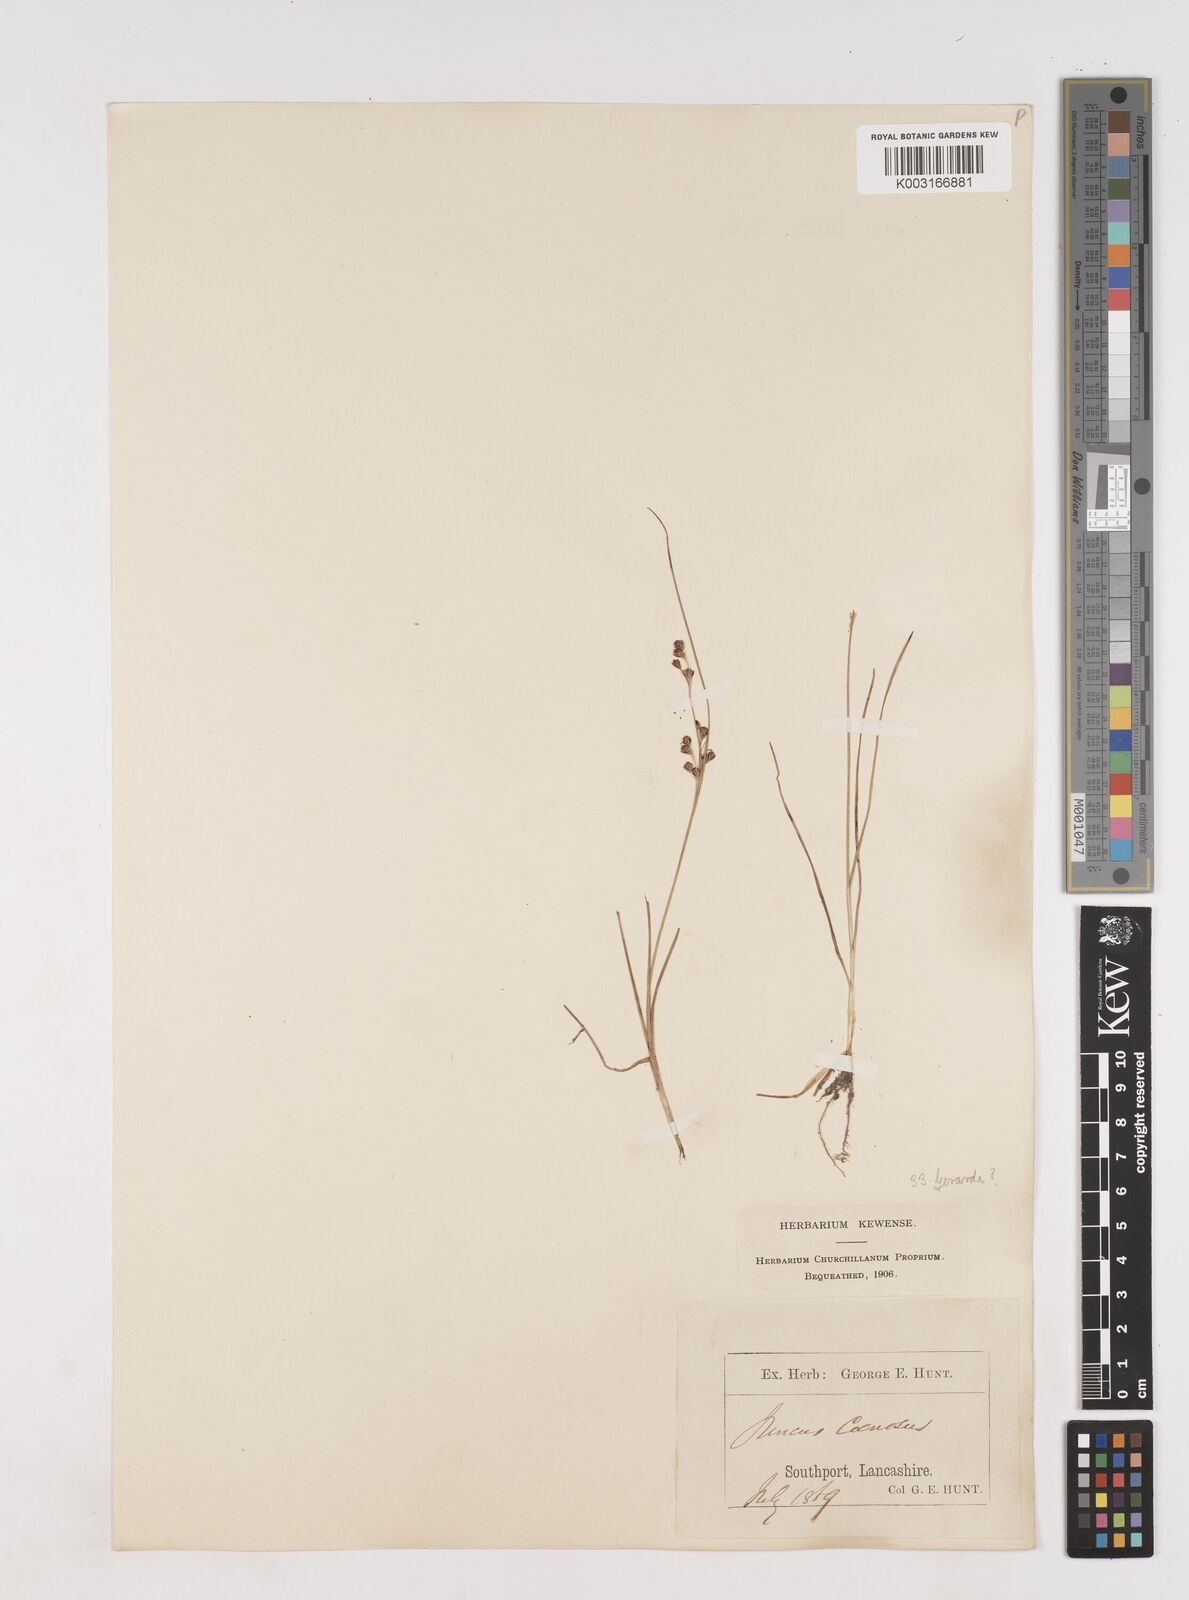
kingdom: Plantae
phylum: Tracheophyta
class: Liliopsida
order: Poales
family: Juncaceae
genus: Juncus
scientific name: Juncus gerardi
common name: Saltmarsh rush
